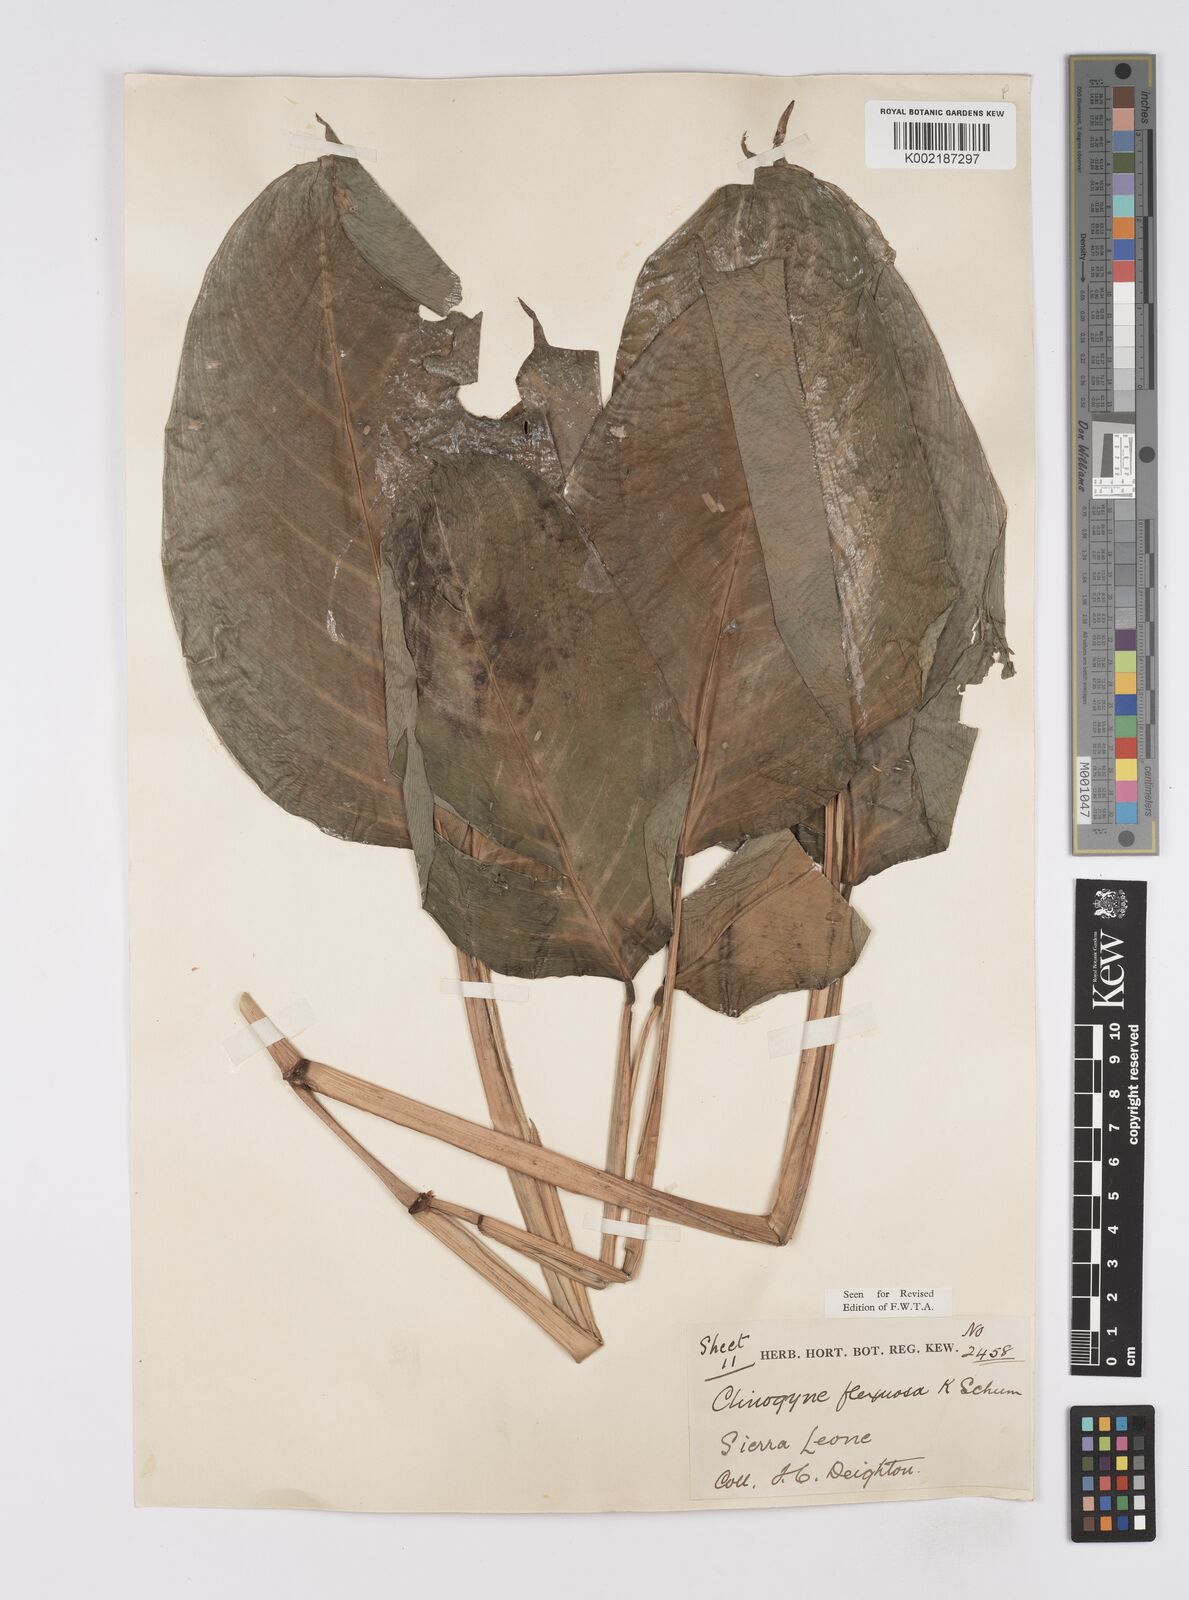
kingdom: Plantae
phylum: Tracheophyta
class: Liliopsida
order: Zingiberales
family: Marantaceae
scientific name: Marantaceae
